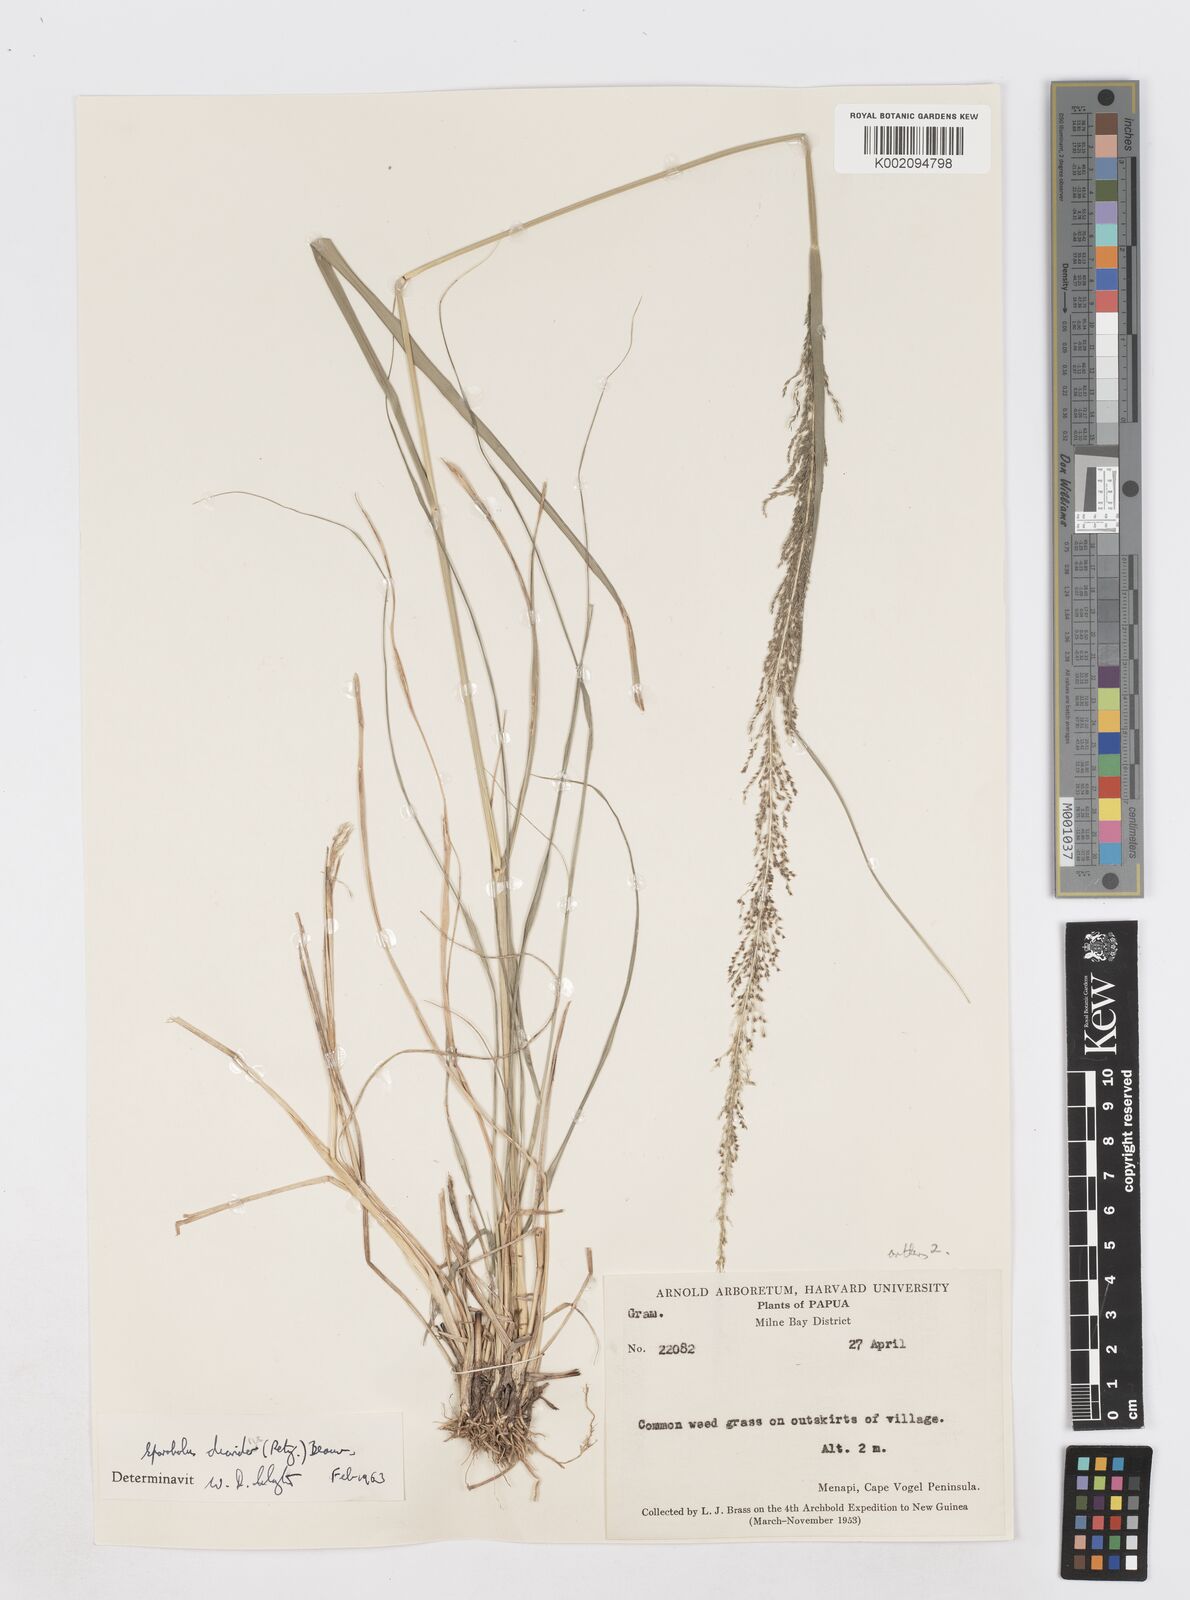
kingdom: Plantae
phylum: Tracheophyta
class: Liliopsida
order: Poales
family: Poaceae
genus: Sporobolus
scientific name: Sporobolus diandrus
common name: Tussock dropseed
